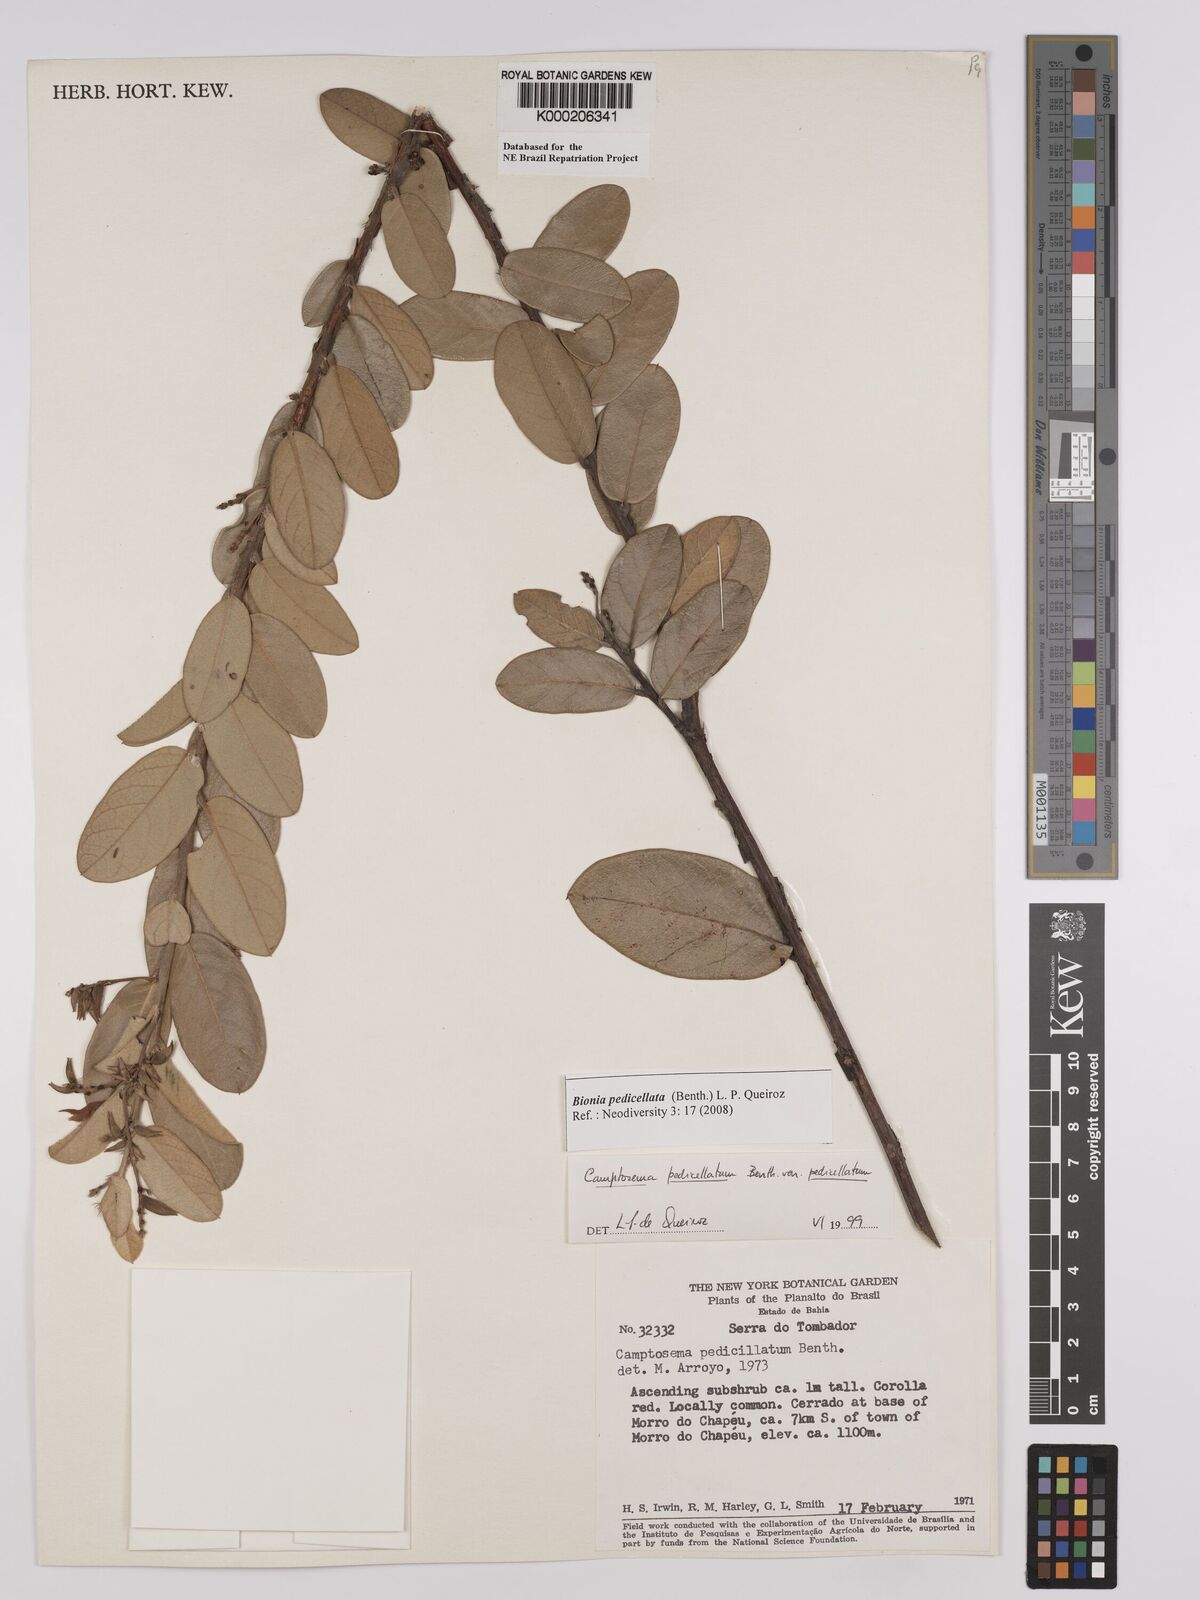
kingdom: Plantae
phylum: Tracheophyta
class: Magnoliopsida
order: Fabales
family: Fabaceae
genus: Camptosema
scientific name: Camptosema pedicellatum
